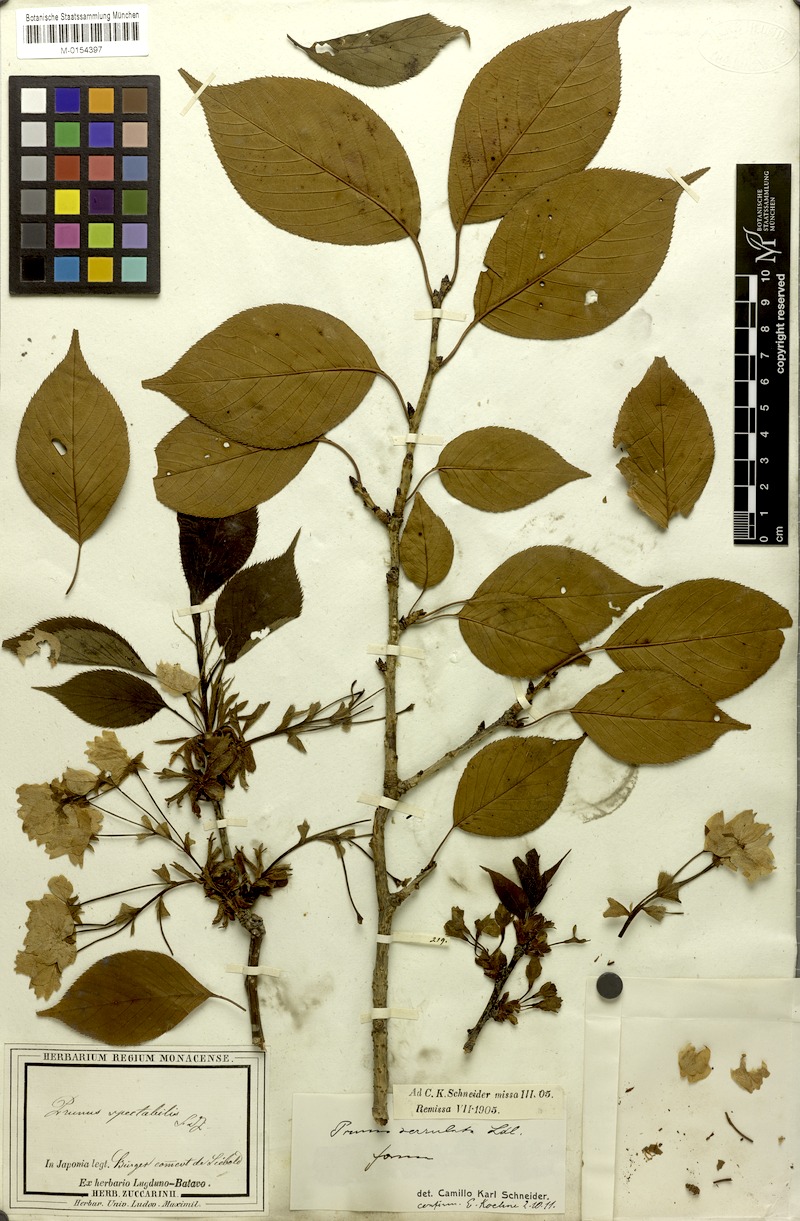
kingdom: Plantae
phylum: Tracheophyta
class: Magnoliopsida
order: Rosales
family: Rosaceae
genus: Prunus
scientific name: Prunus serrulata
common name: Japanese cherry
